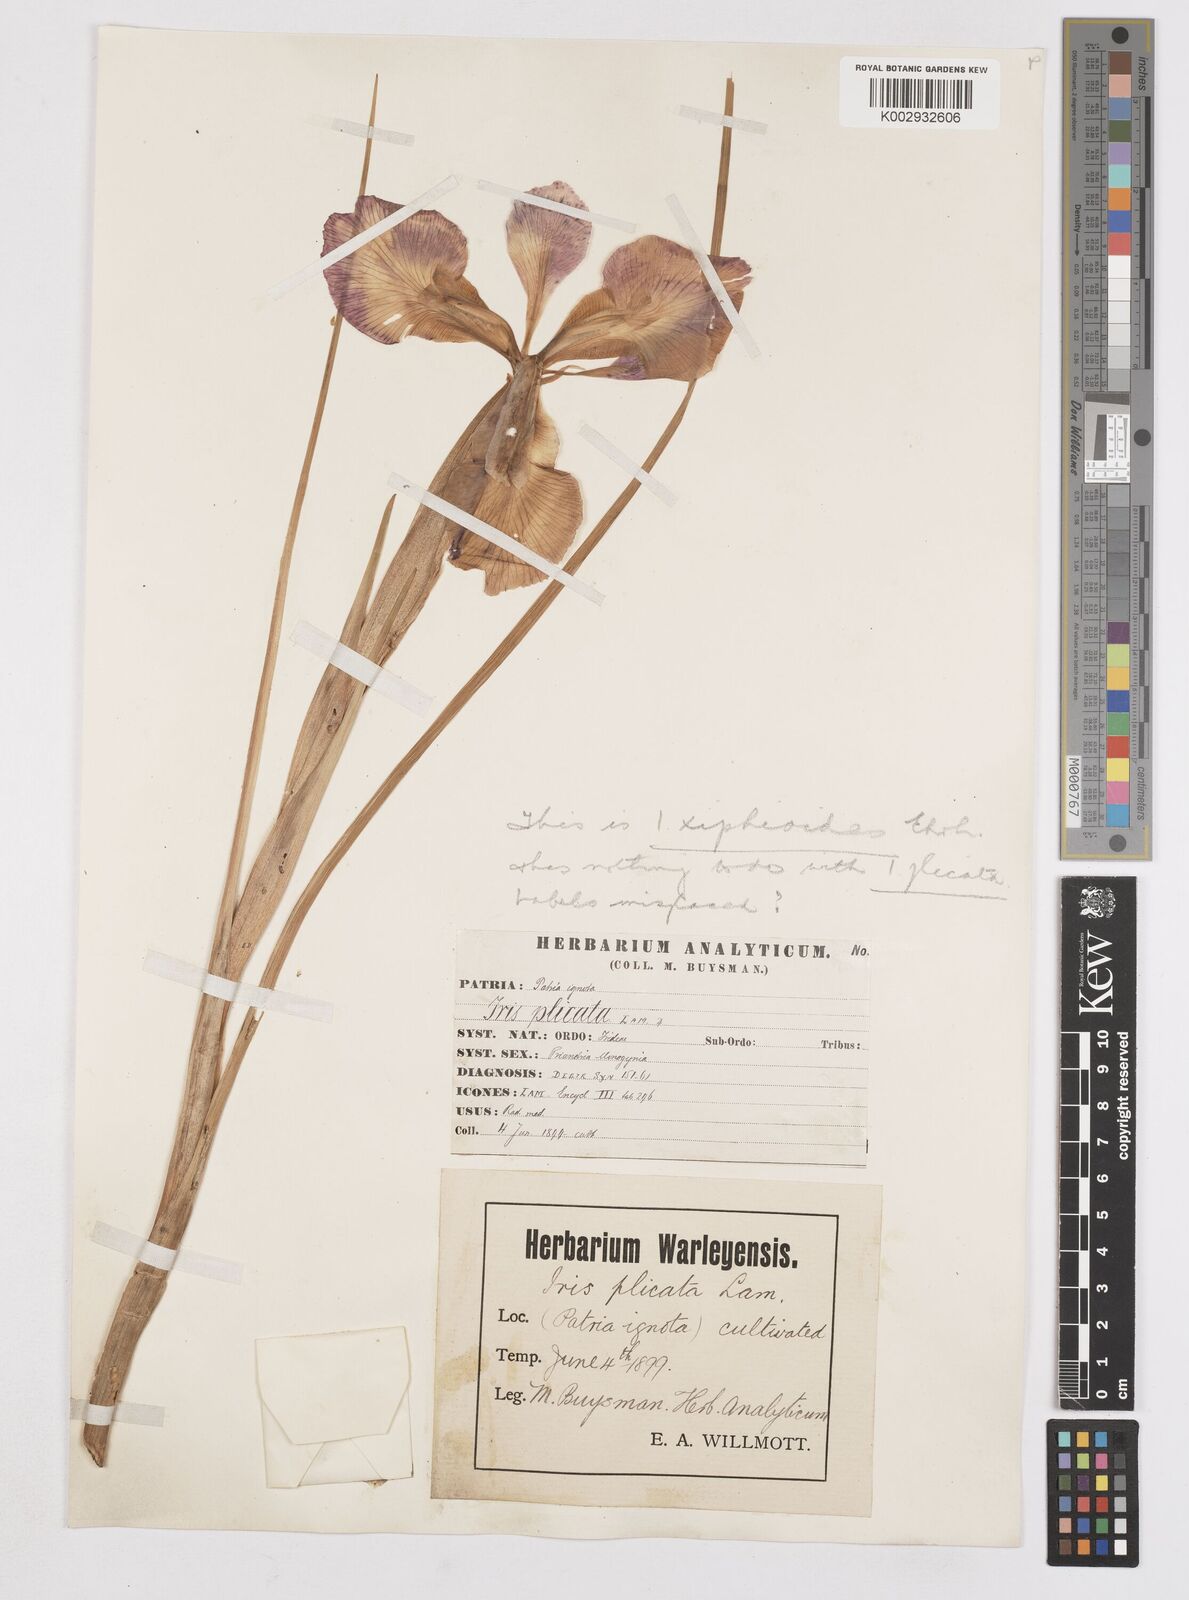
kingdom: Plantae
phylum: Tracheophyta
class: Liliopsida
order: Asparagales
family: Iridaceae
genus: Iris
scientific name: Iris jacquinii
